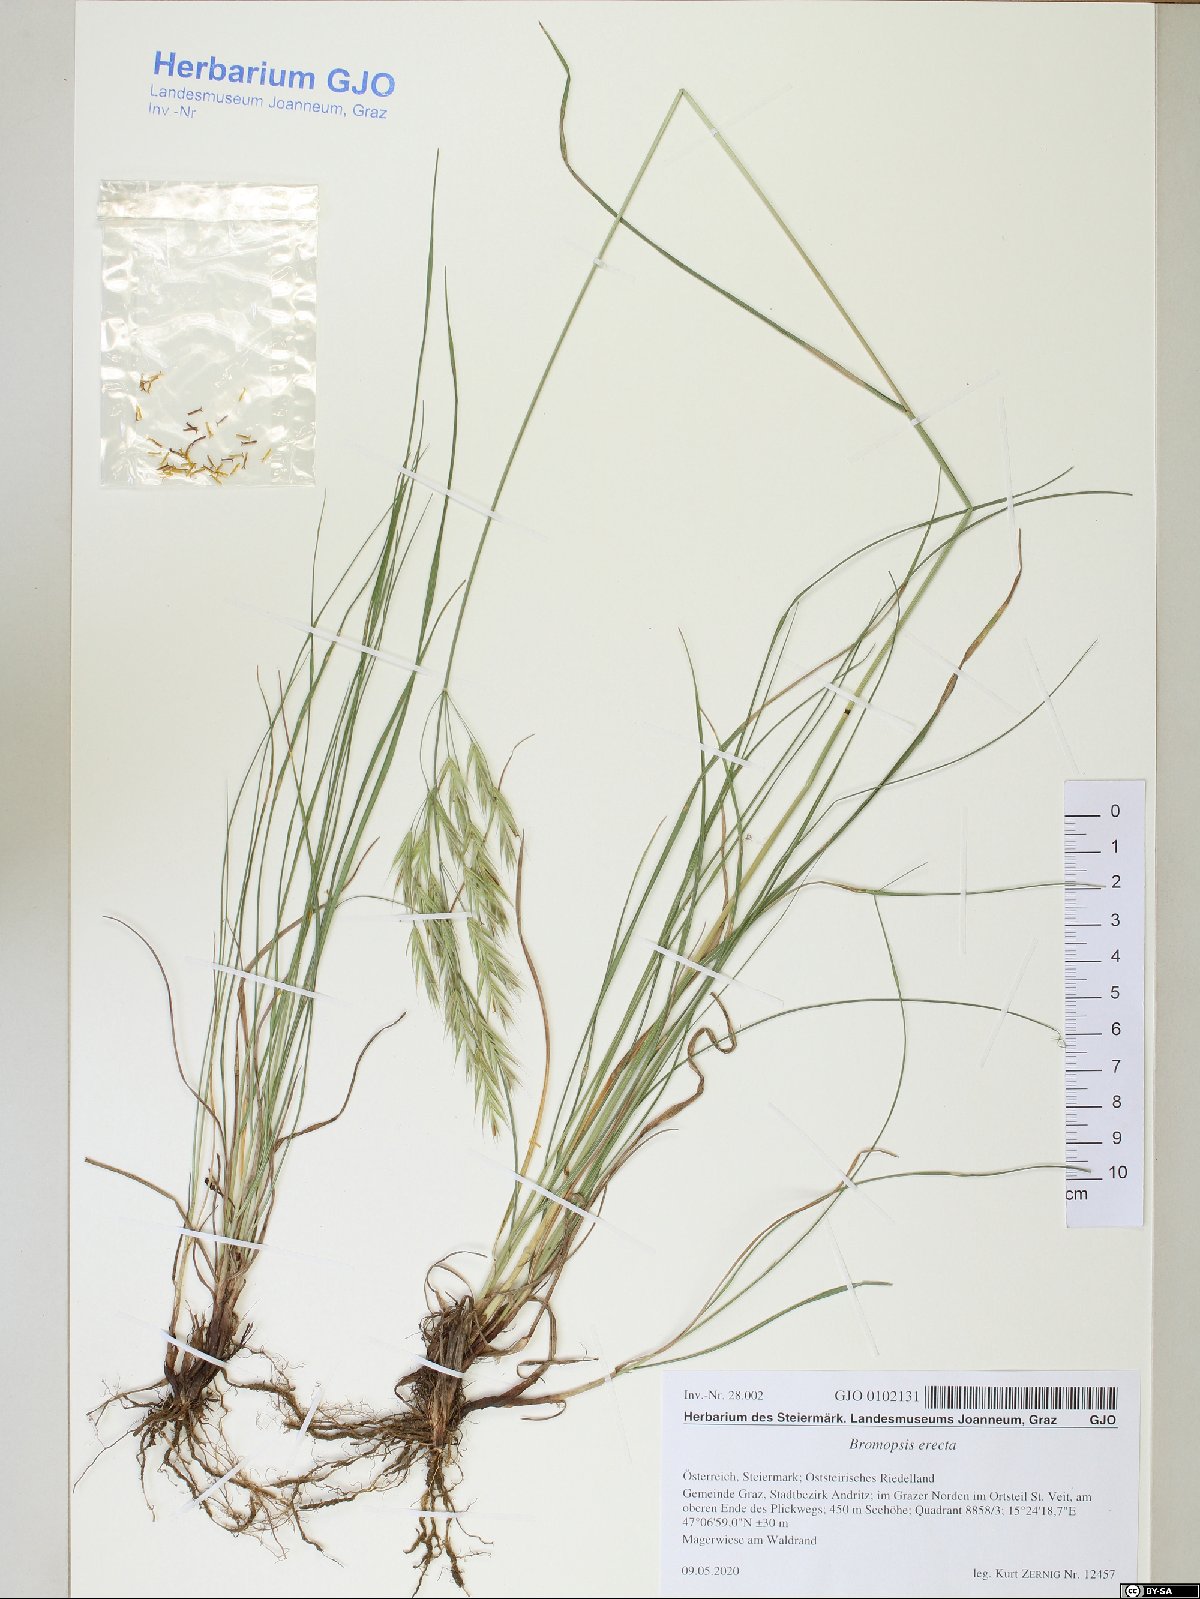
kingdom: Plantae
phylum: Tracheophyta
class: Liliopsida
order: Poales
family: Poaceae
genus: Bromus
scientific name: Bromus erectus
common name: Erect brome
